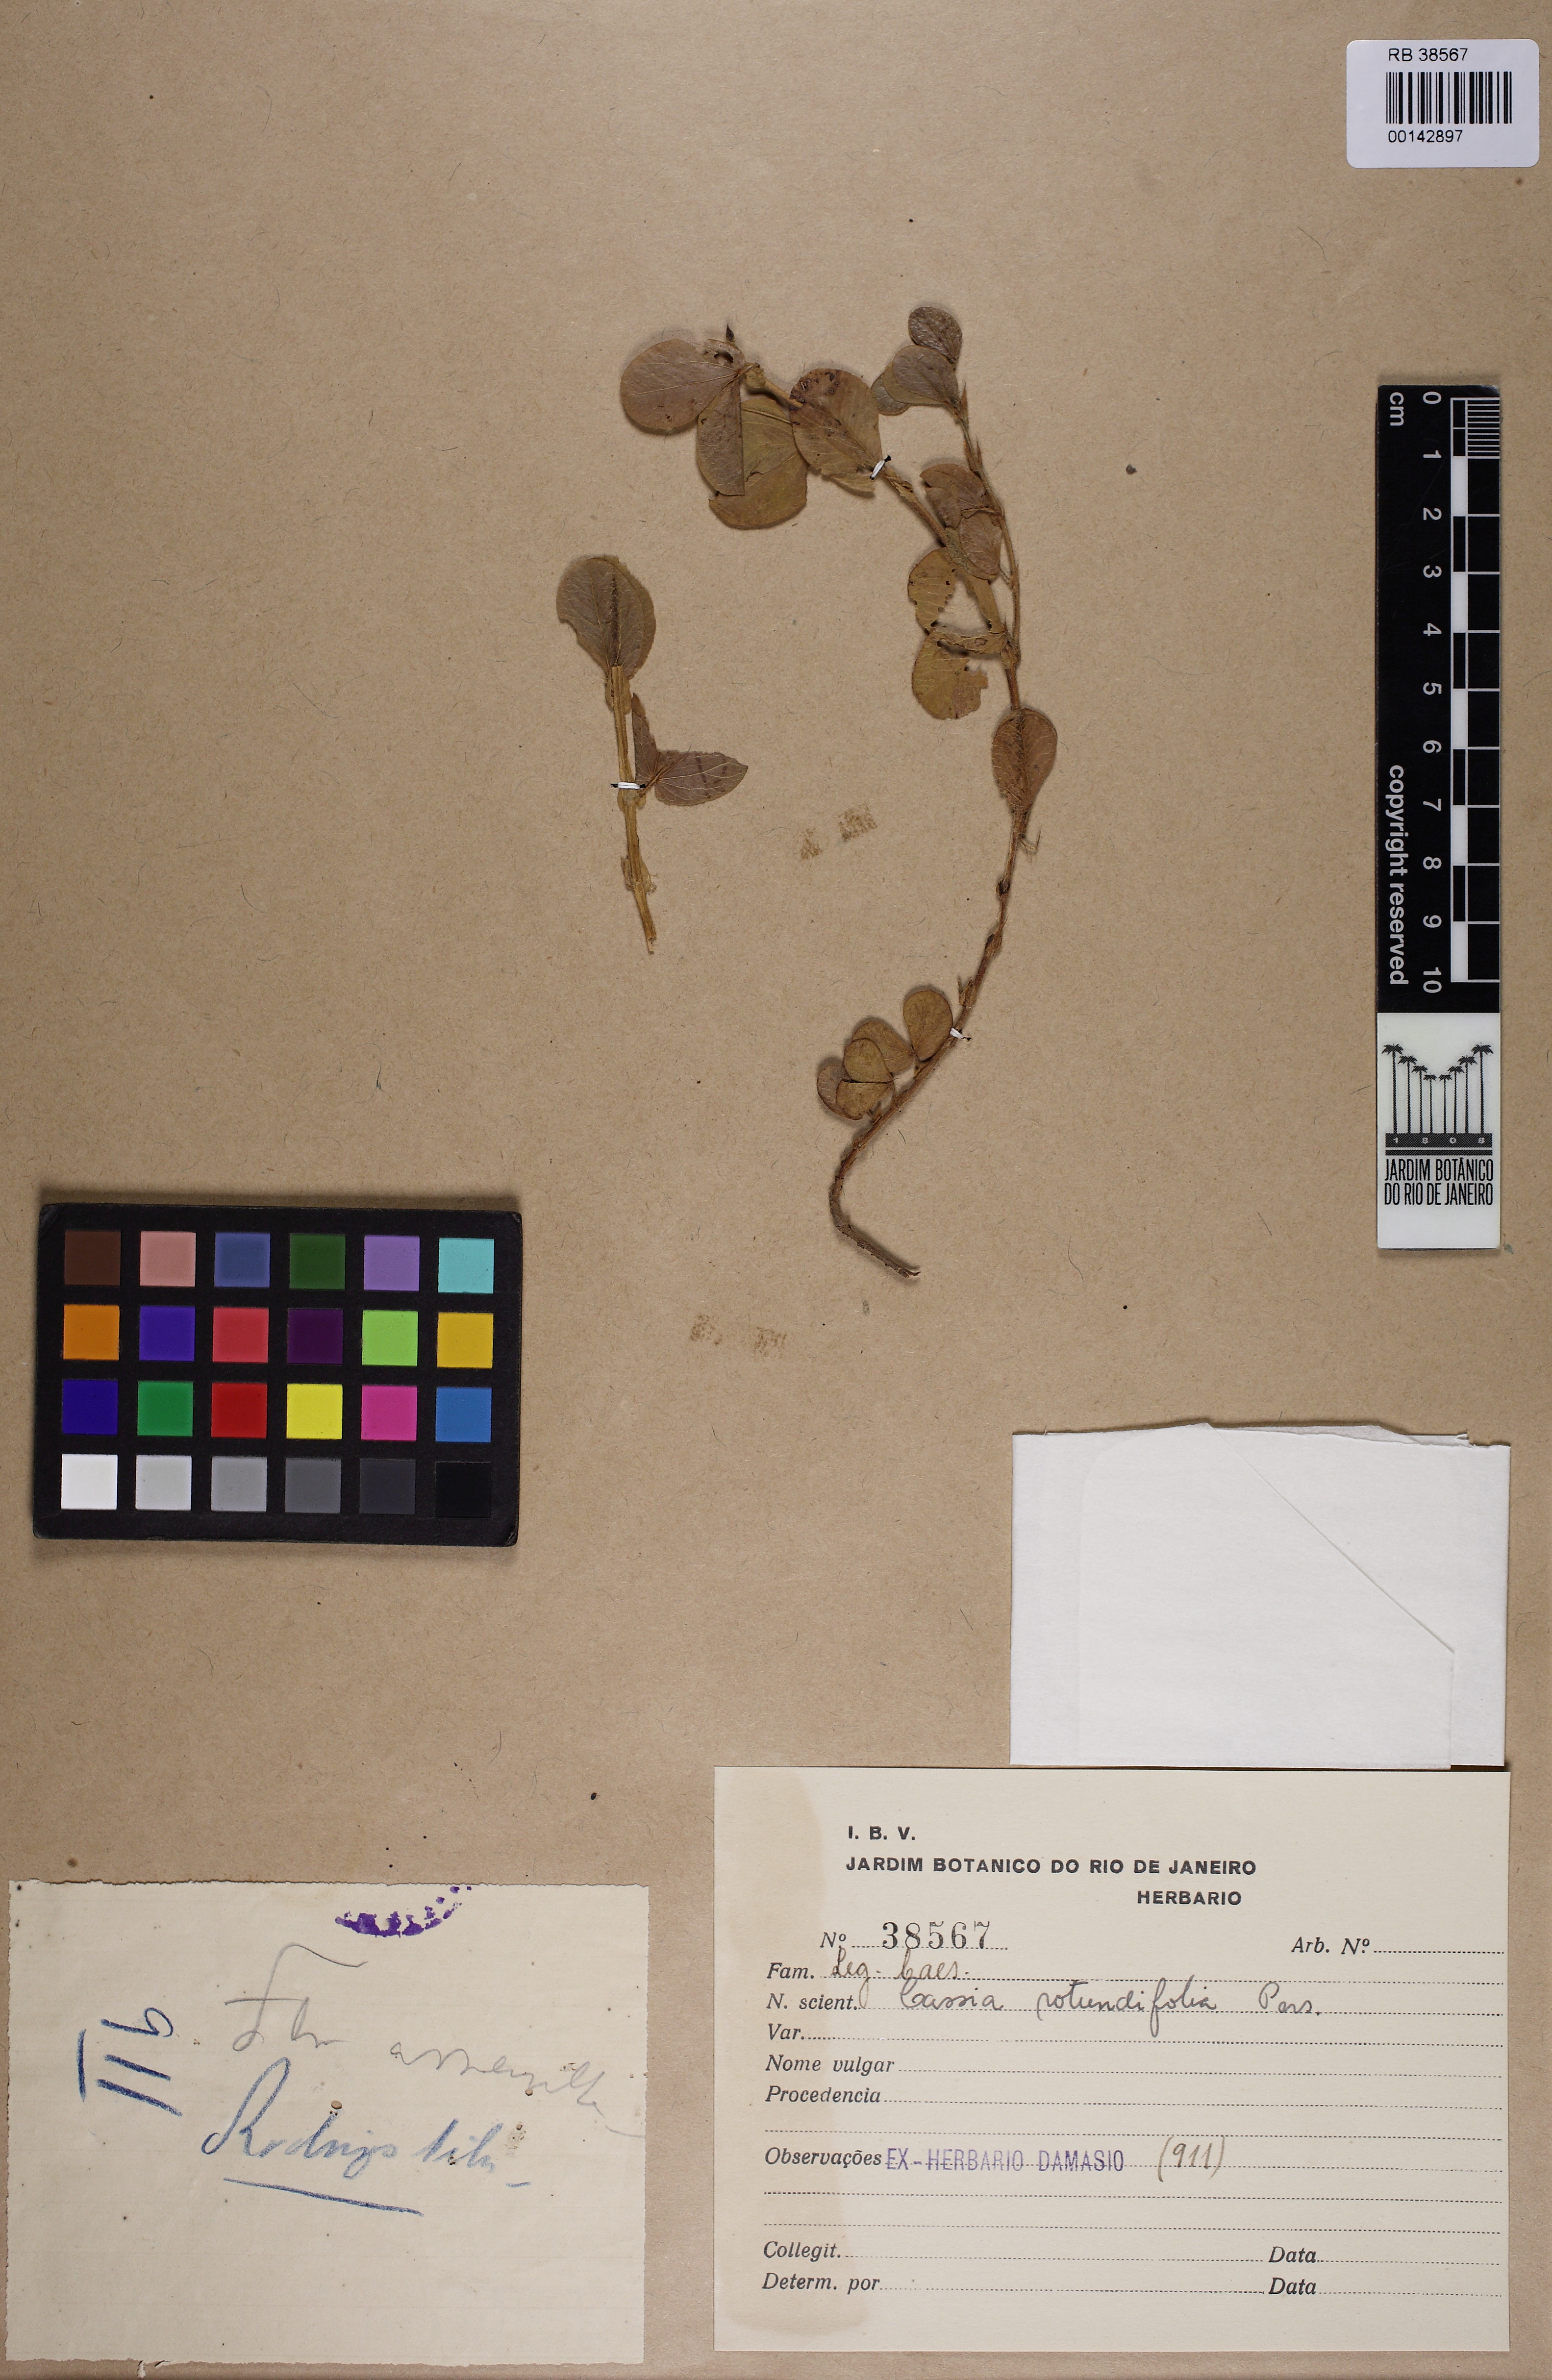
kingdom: Plantae
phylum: Tracheophyta
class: Magnoliopsida
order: Fabales
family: Fabaceae
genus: Chamaecrista
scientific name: Chamaecrista rotundifolia
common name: Round-leaf cassia
